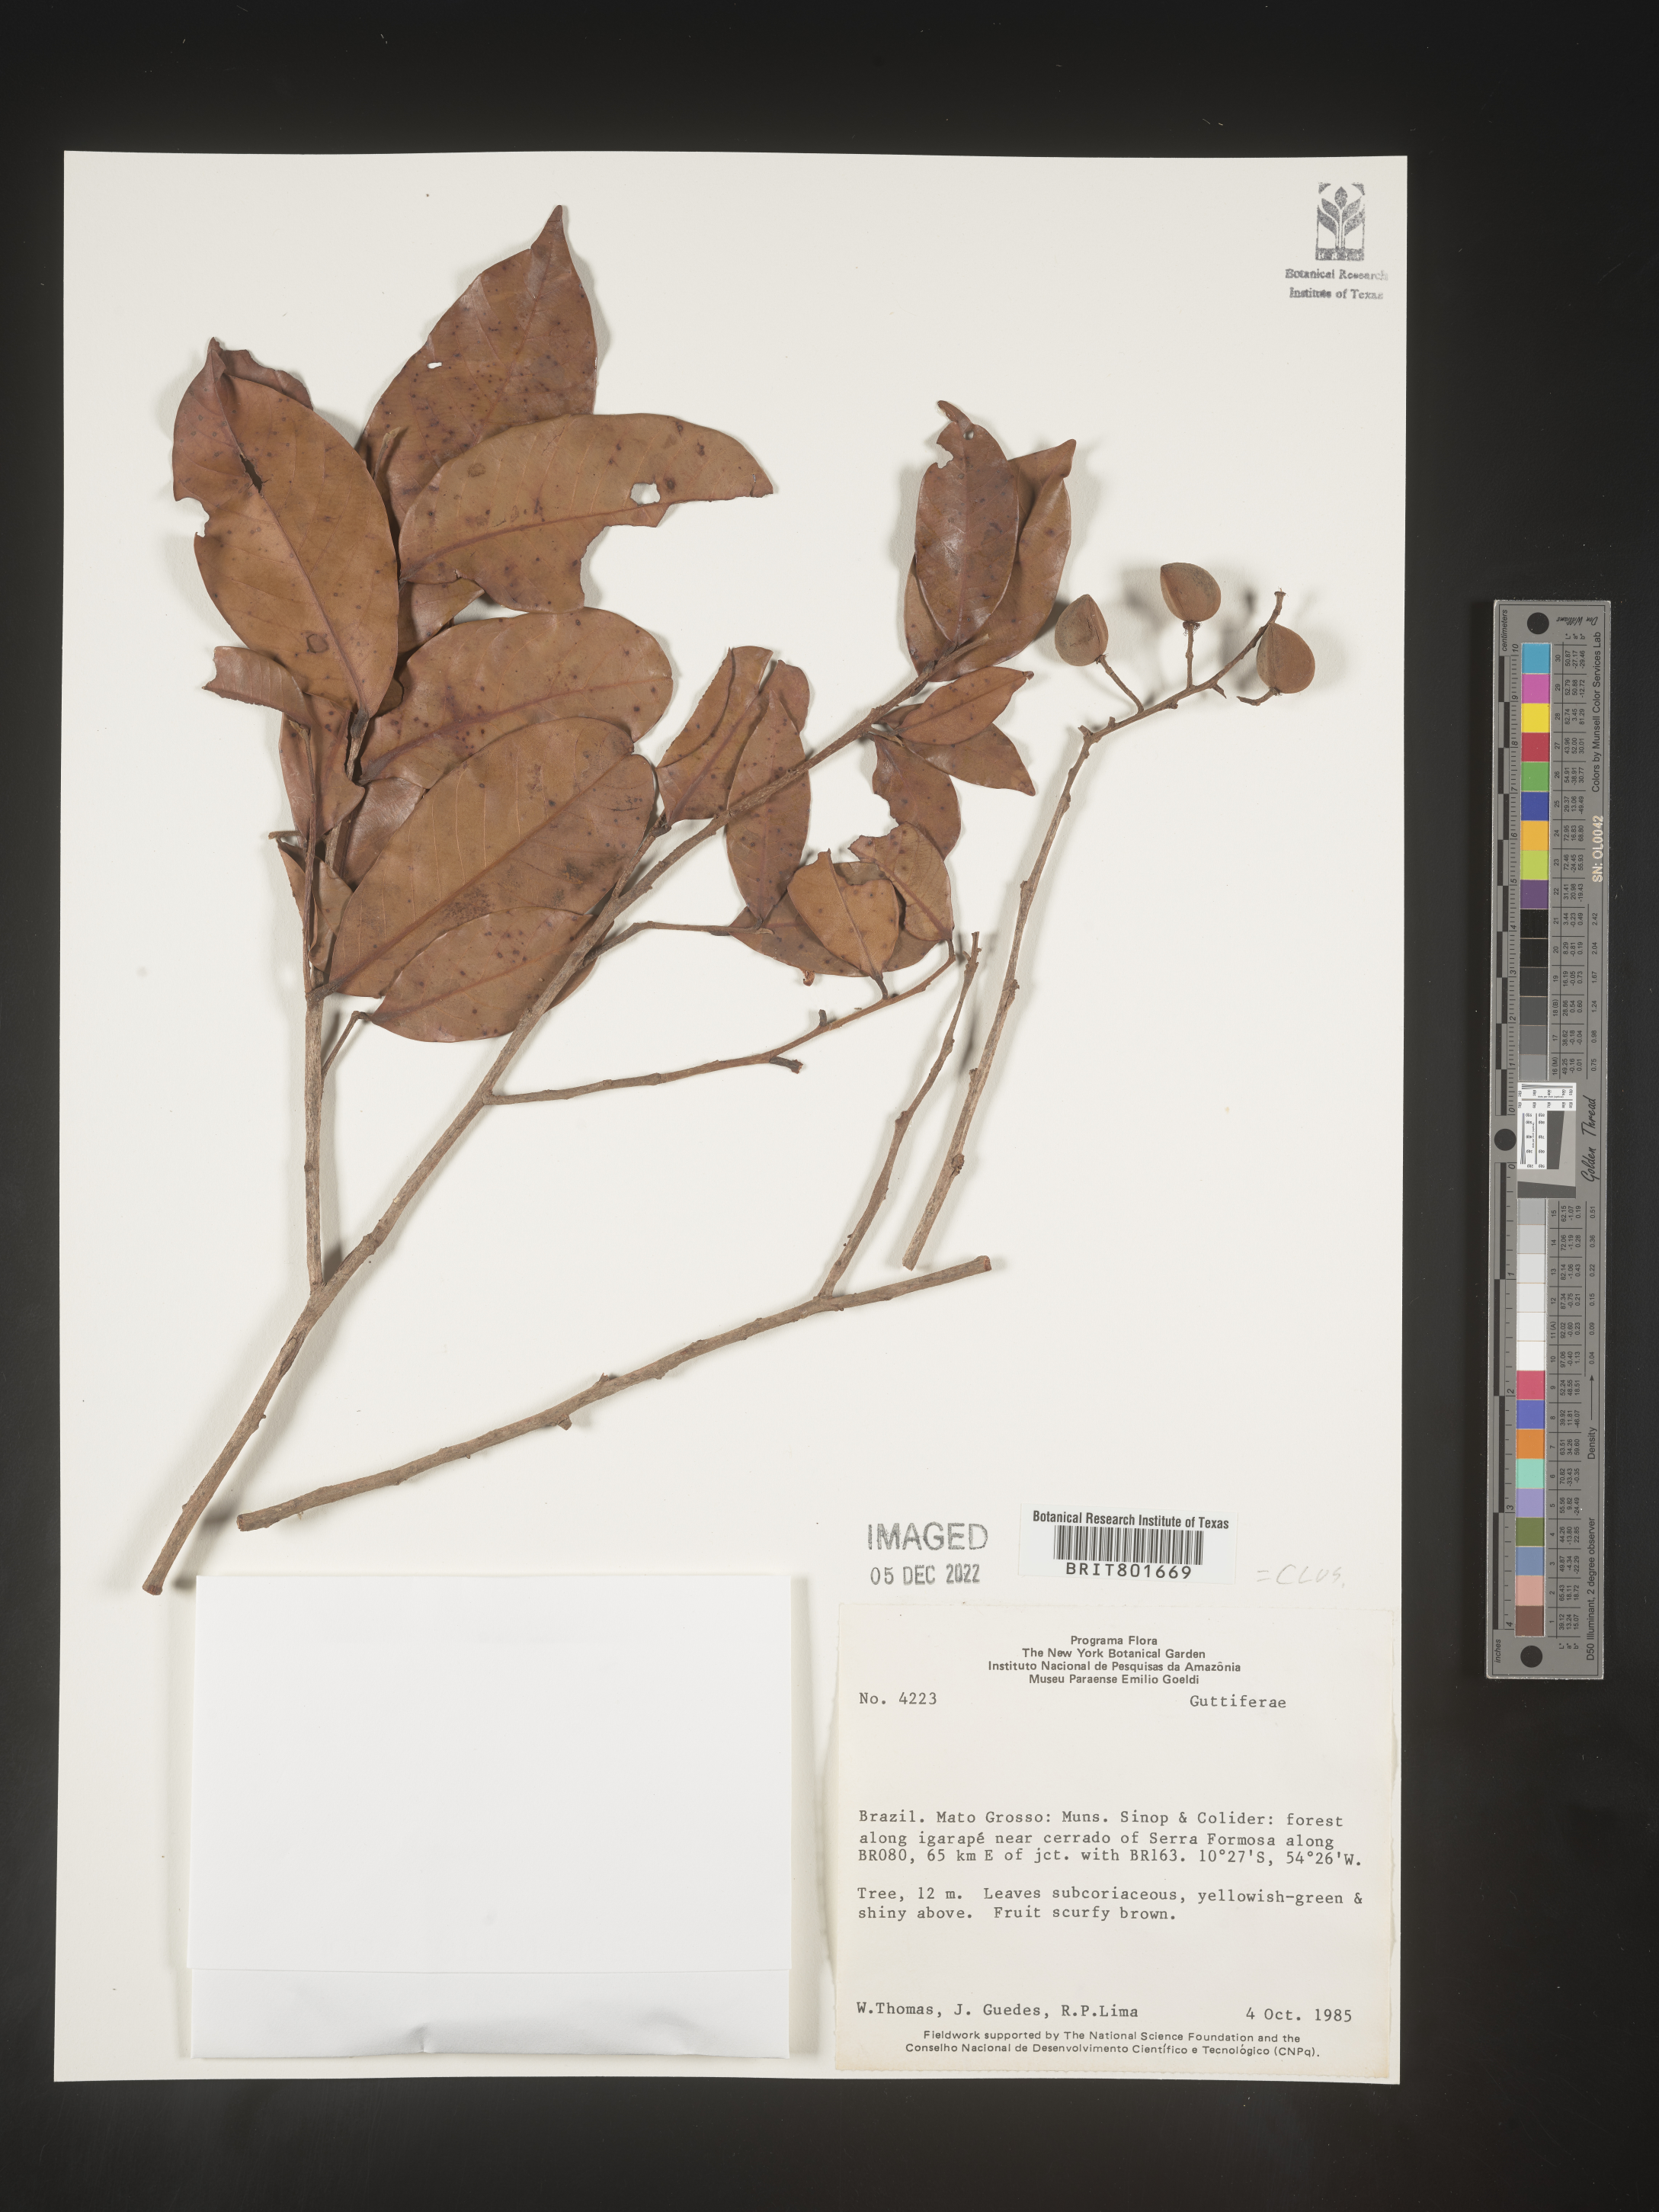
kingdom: Plantae
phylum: Tracheophyta
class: Magnoliopsida
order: Malpighiales
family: Clusiaceae
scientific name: Clusiaceae
